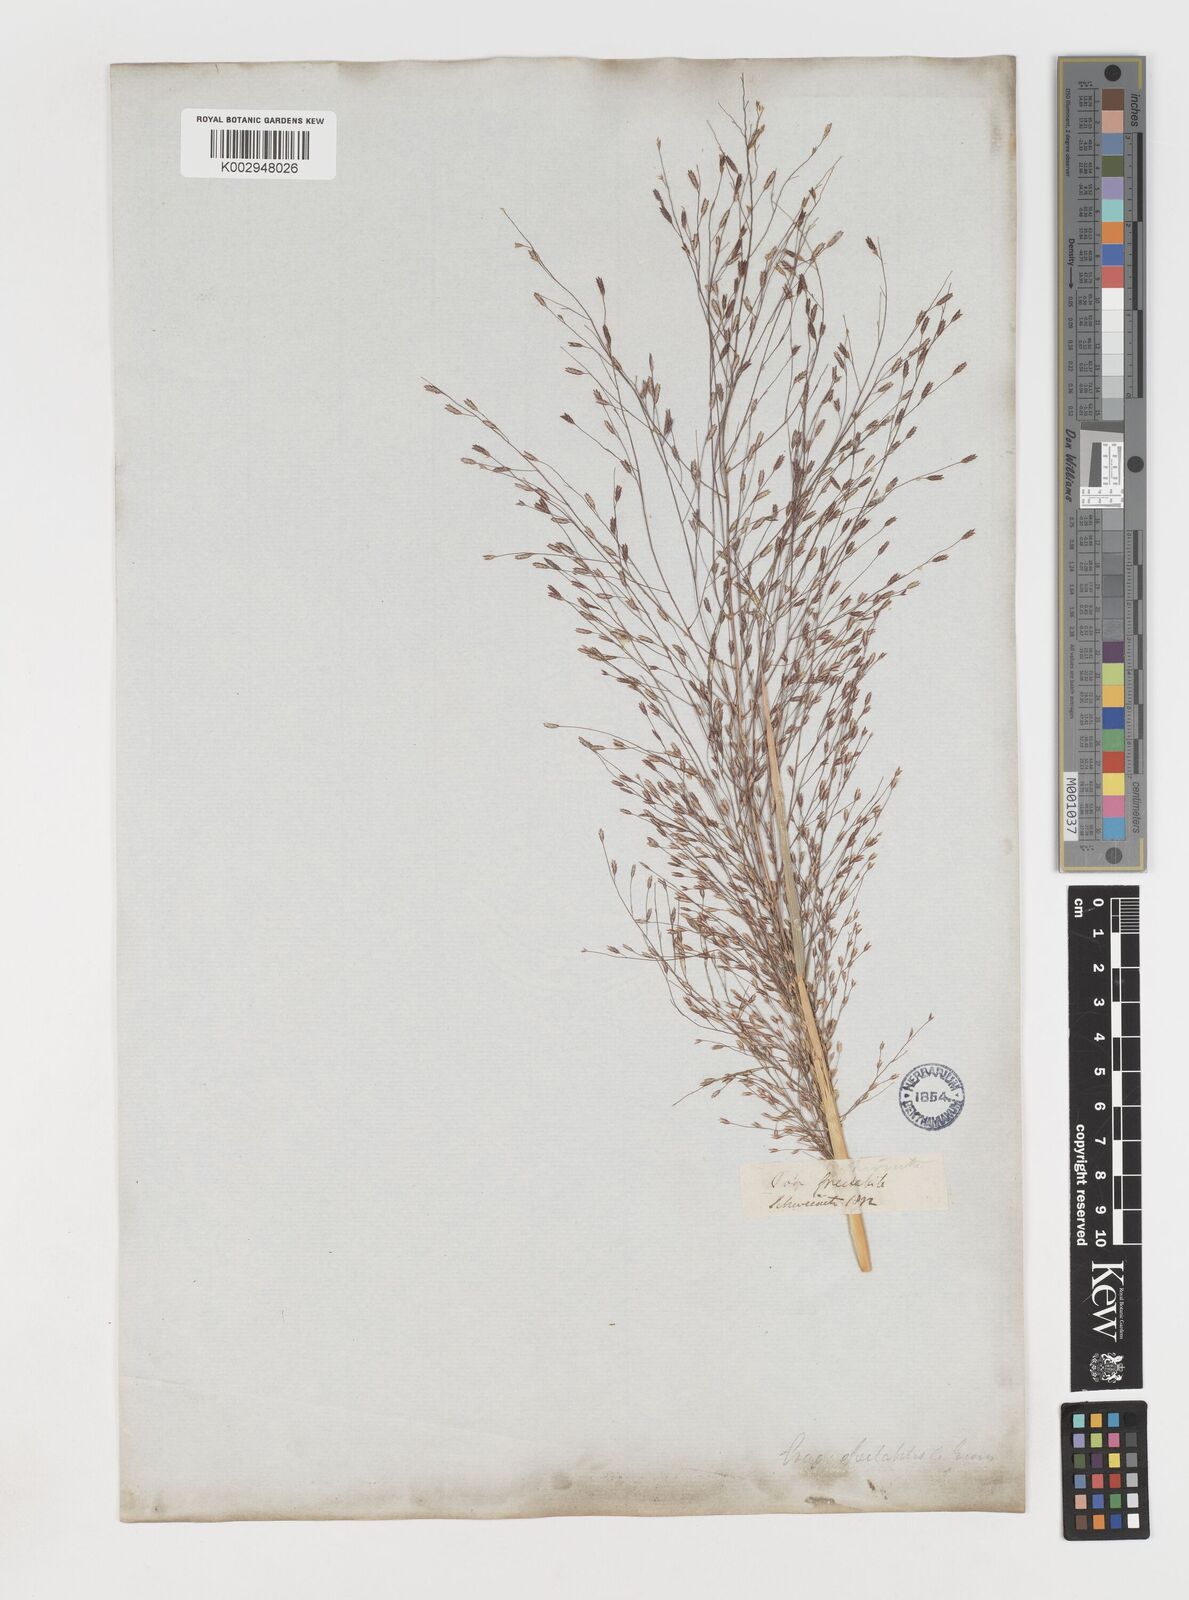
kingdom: Plantae
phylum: Tracheophyta
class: Liliopsida
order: Poales
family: Poaceae
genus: Eragrostis
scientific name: Eragrostis spectabilis
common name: Petticoat-climber
